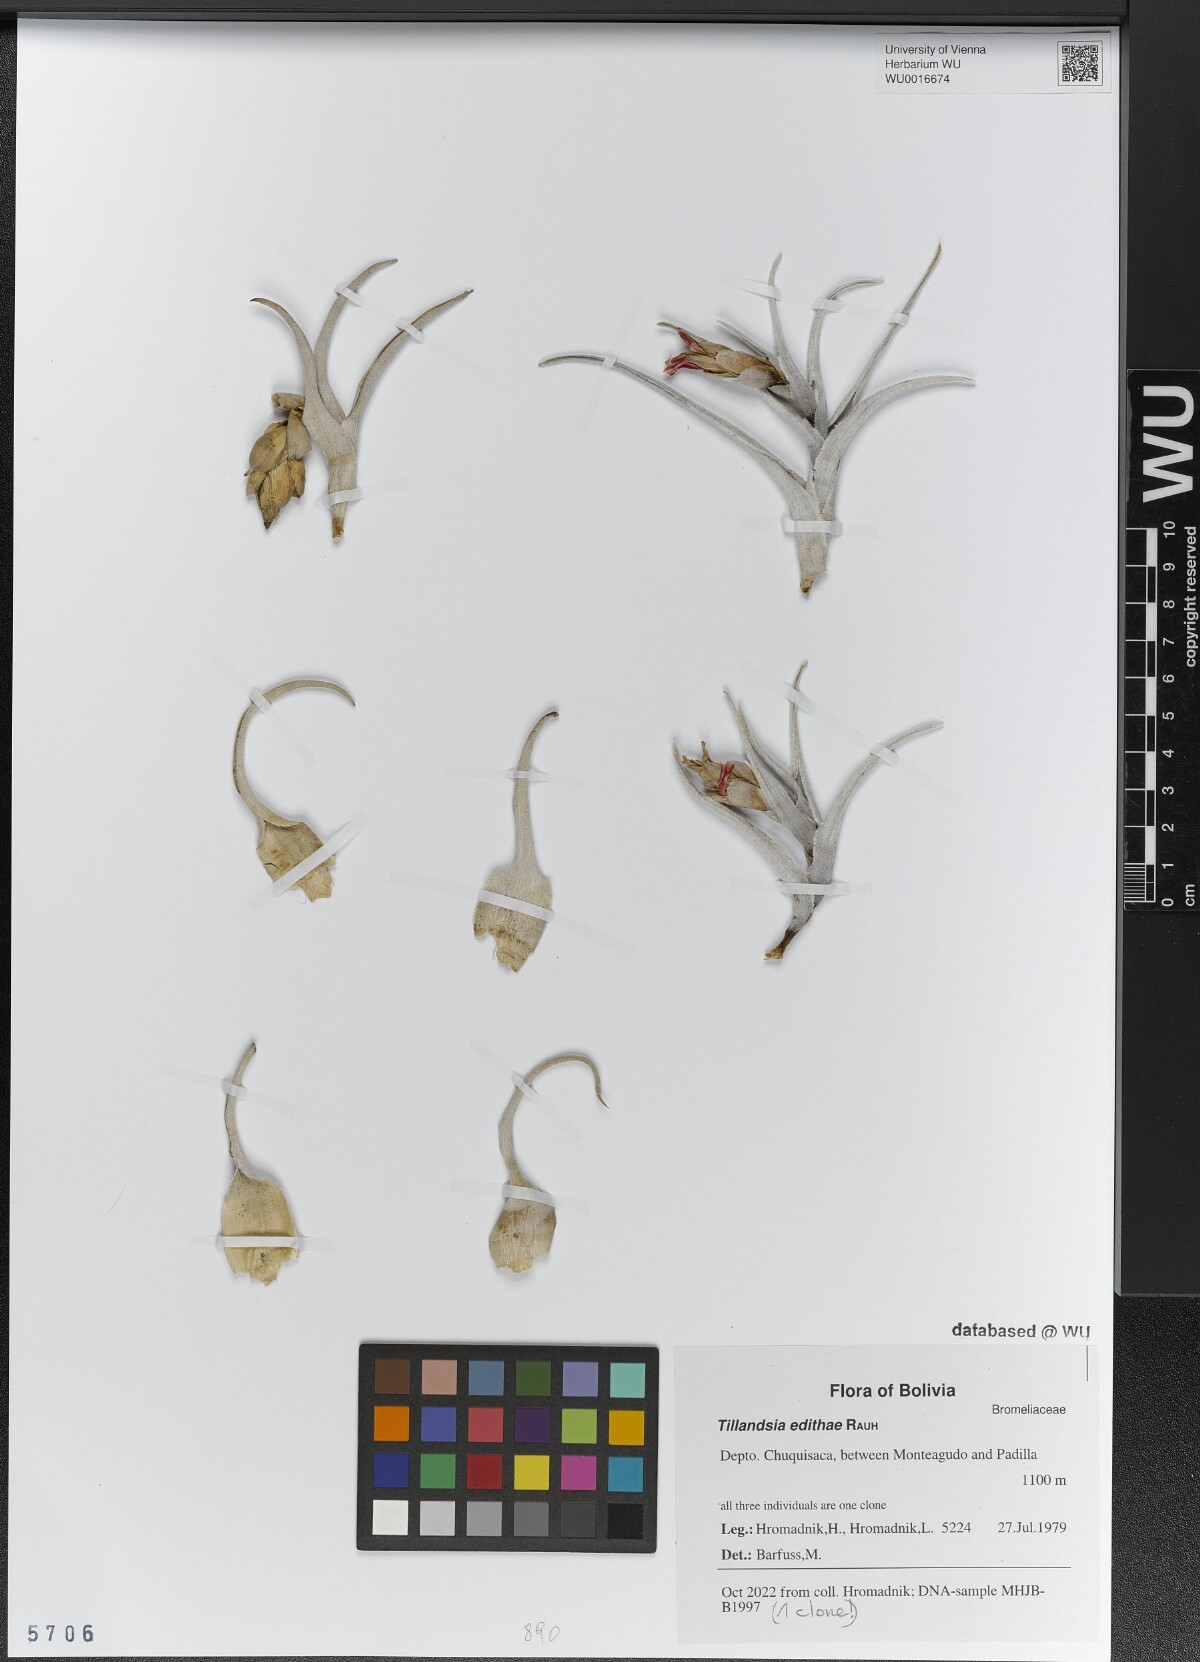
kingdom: Plantae
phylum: Tracheophyta
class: Liliopsida
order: Poales
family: Bromeliaceae
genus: Tillandsia
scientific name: Tillandsia edithae
